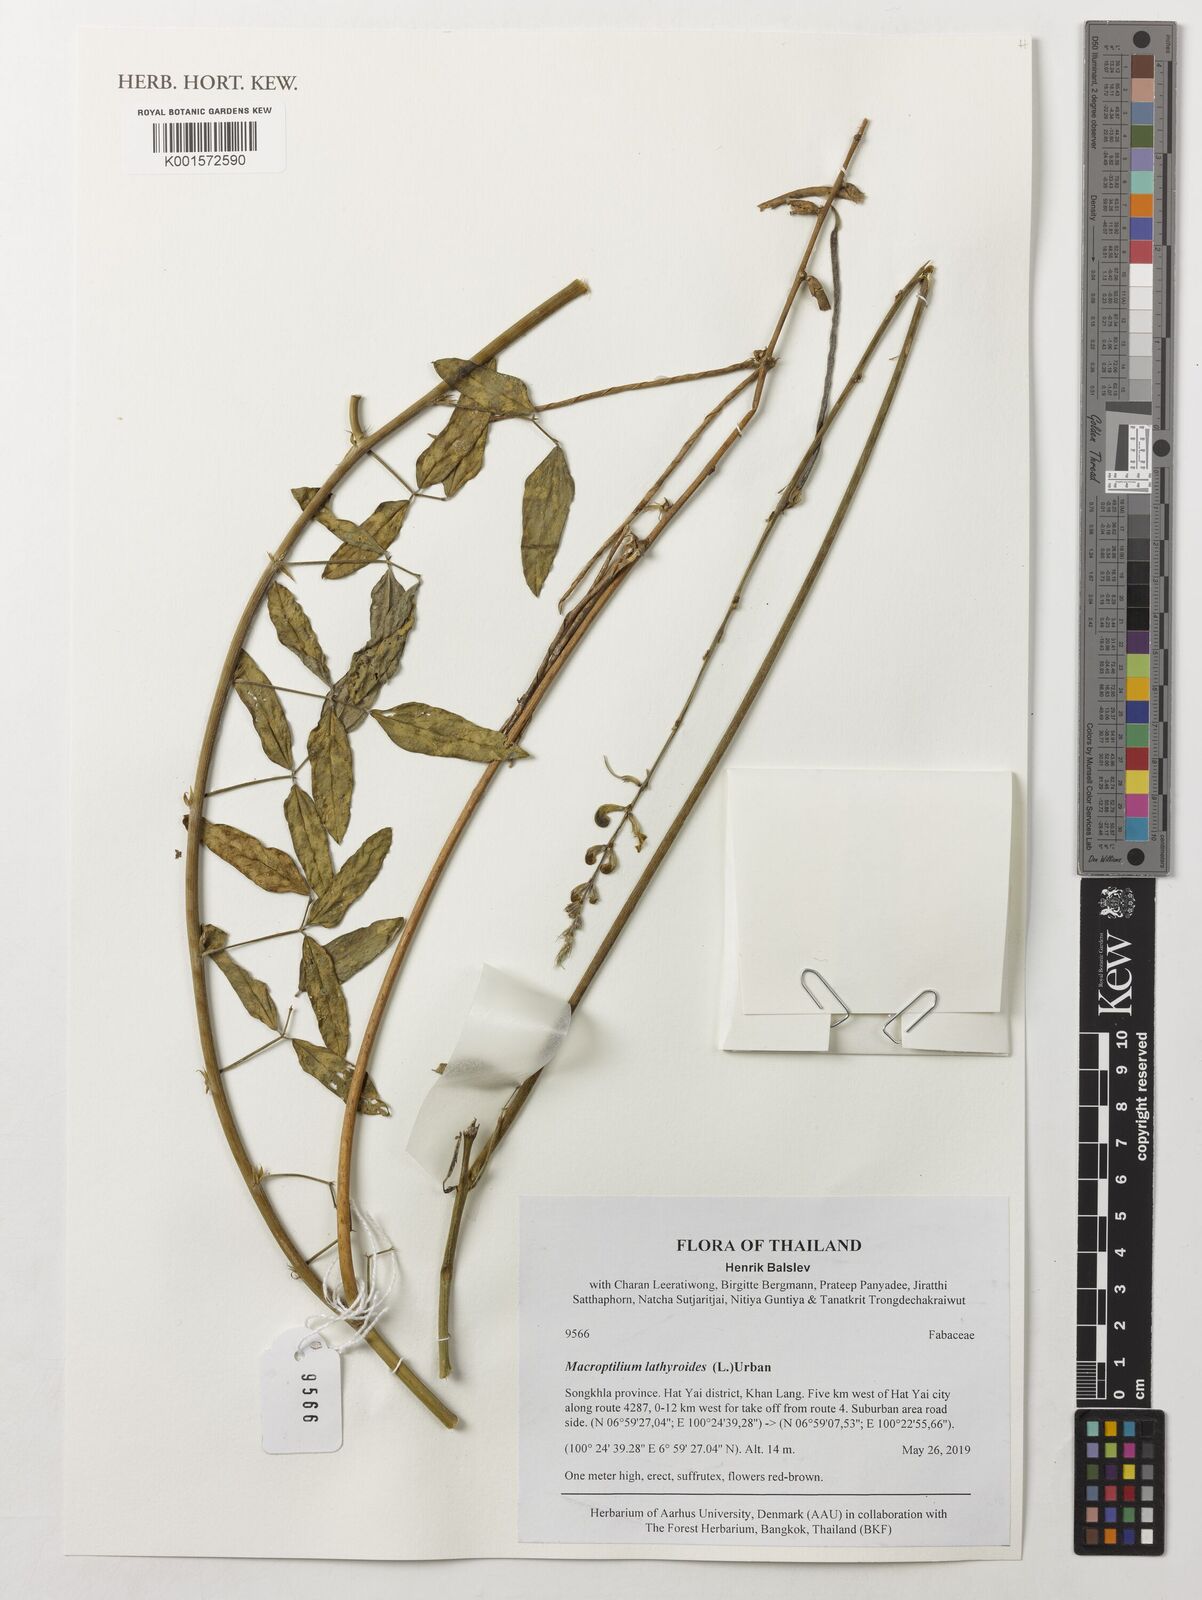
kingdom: Plantae
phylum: Tracheophyta
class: Magnoliopsida
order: Fabales
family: Fabaceae
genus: Macroptilium
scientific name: Macroptilium lathyroides
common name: Wild bushbean
